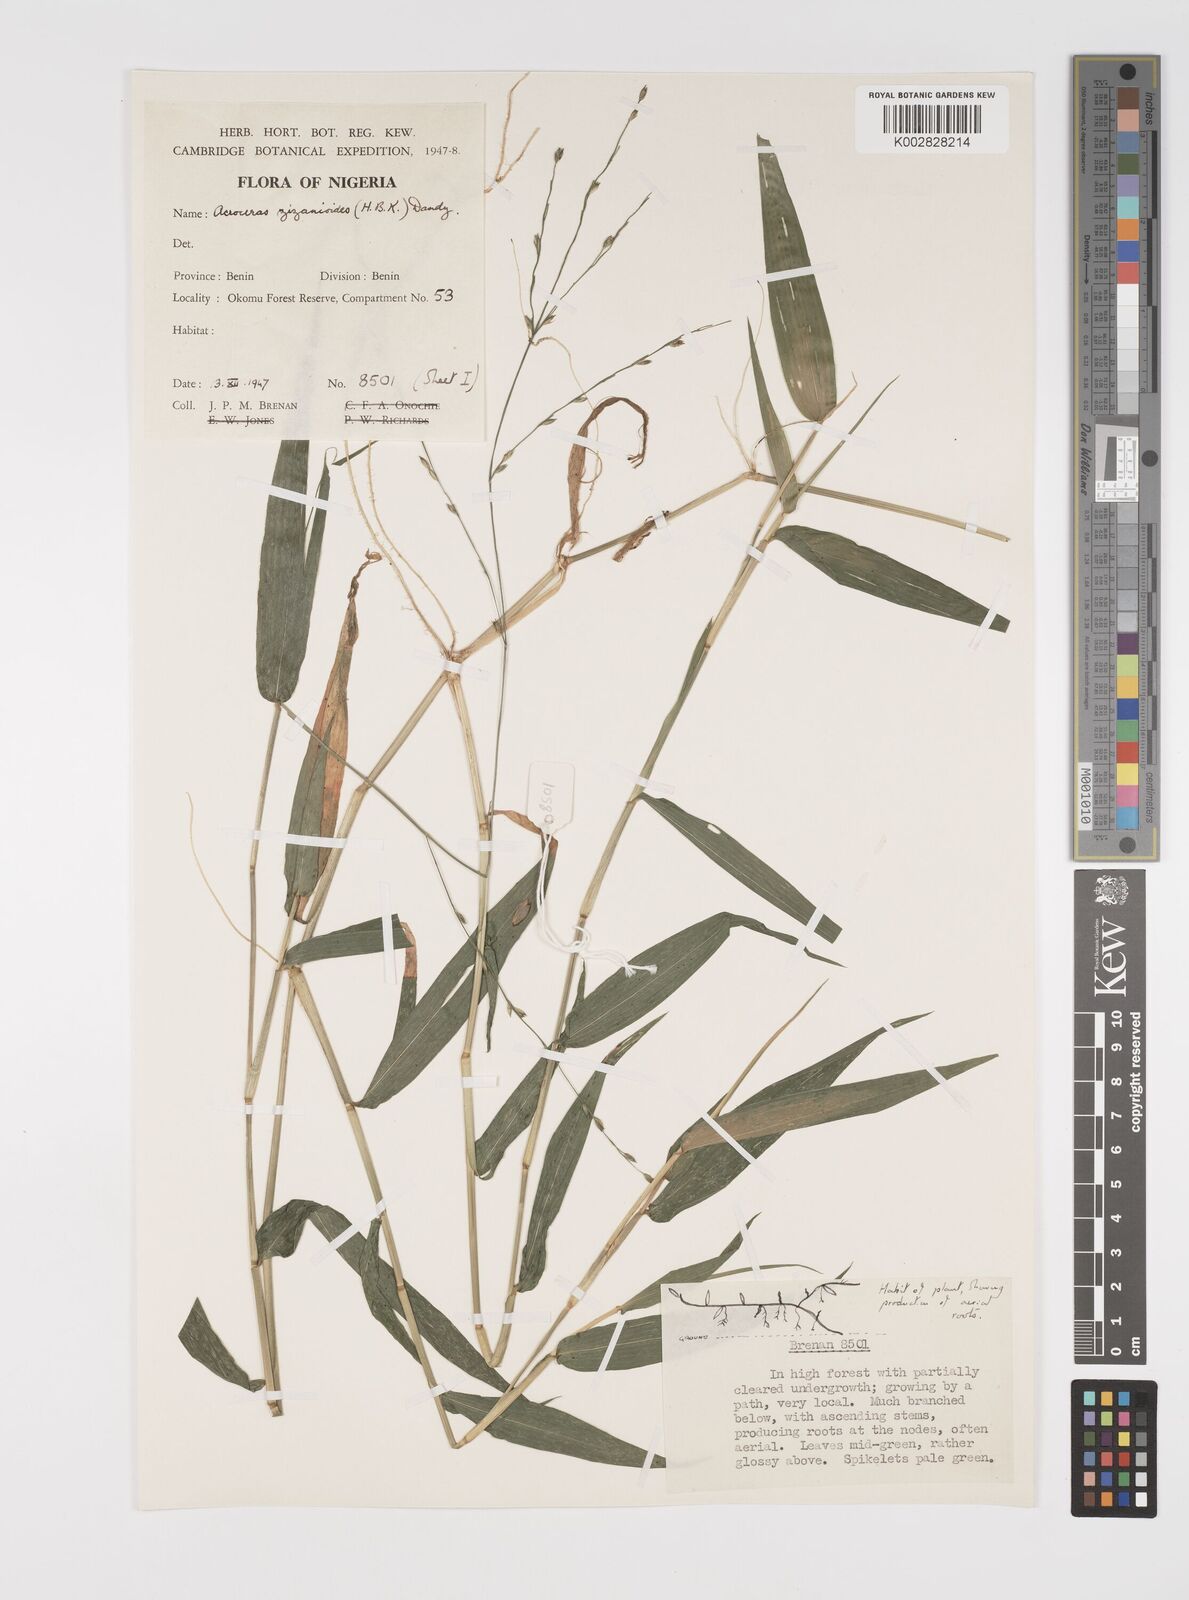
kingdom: Plantae
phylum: Tracheophyta
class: Liliopsida
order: Poales
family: Poaceae
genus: Acroceras
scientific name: Acroceras zizanioides
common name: Oat grass
